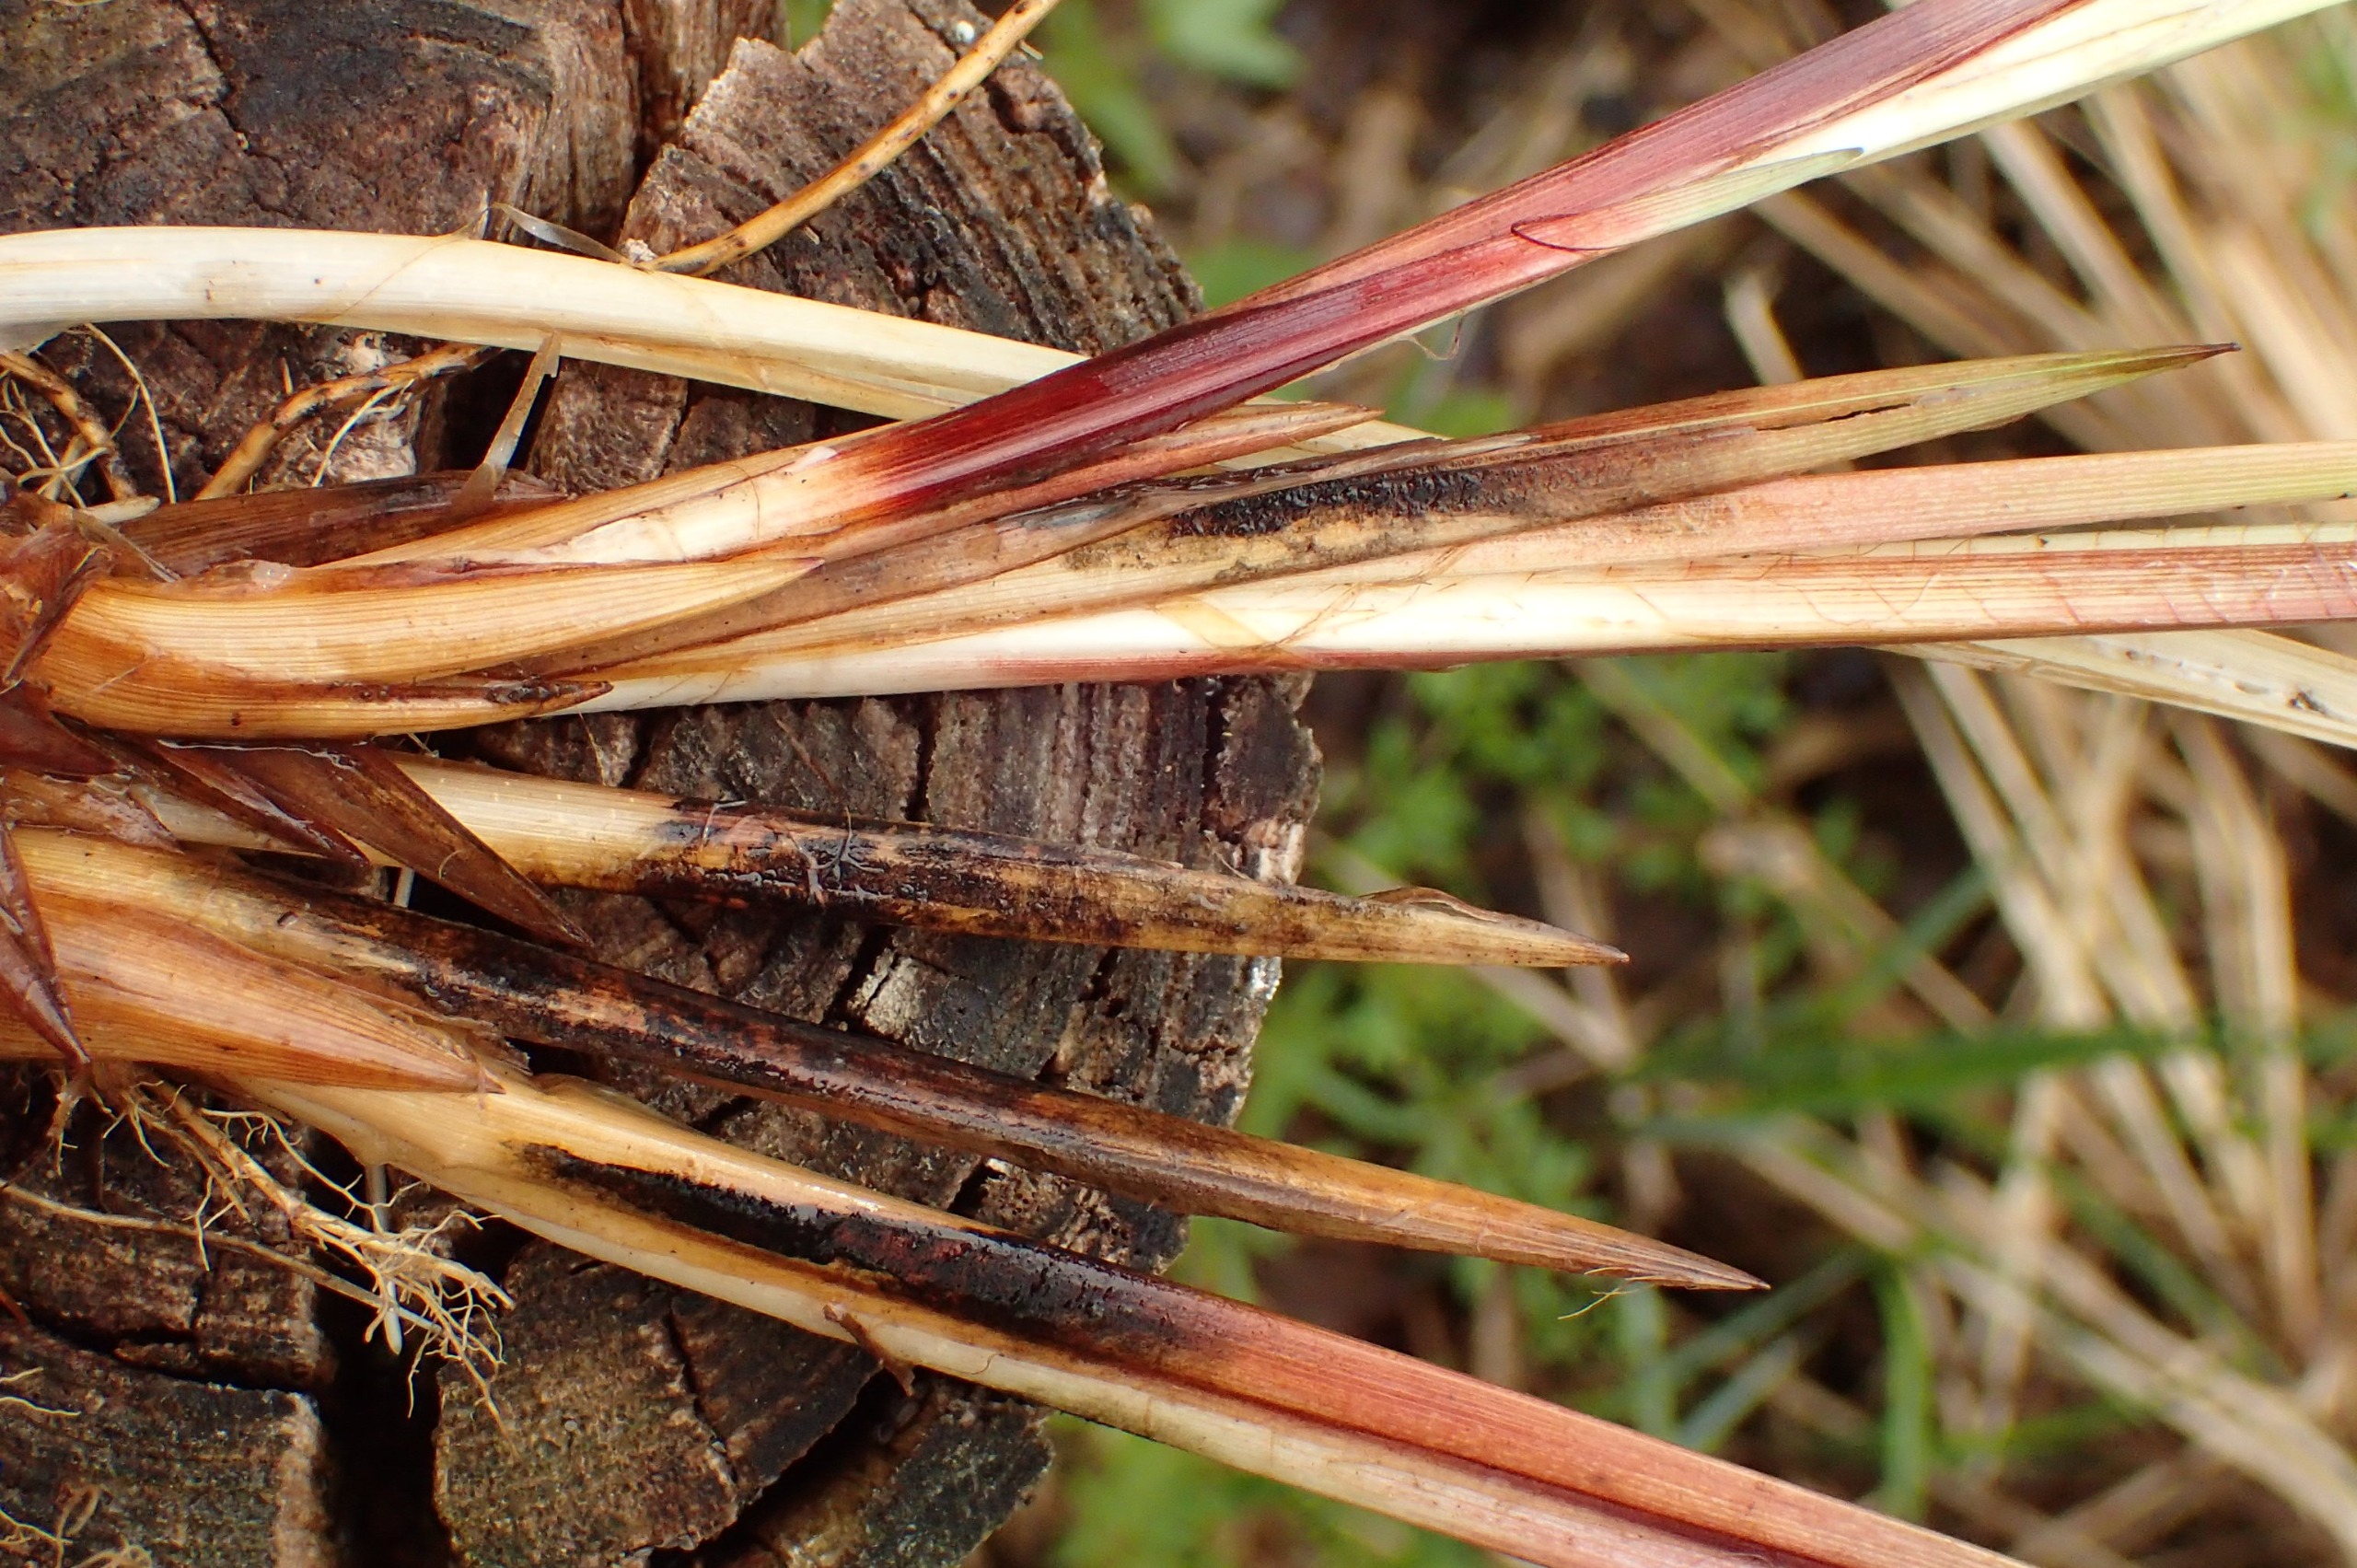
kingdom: Plantae
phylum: Tracheophyta
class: Liliopsida
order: Poales
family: Cyperaceae
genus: Carex
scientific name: Carex acutiformis
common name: Kær-star
